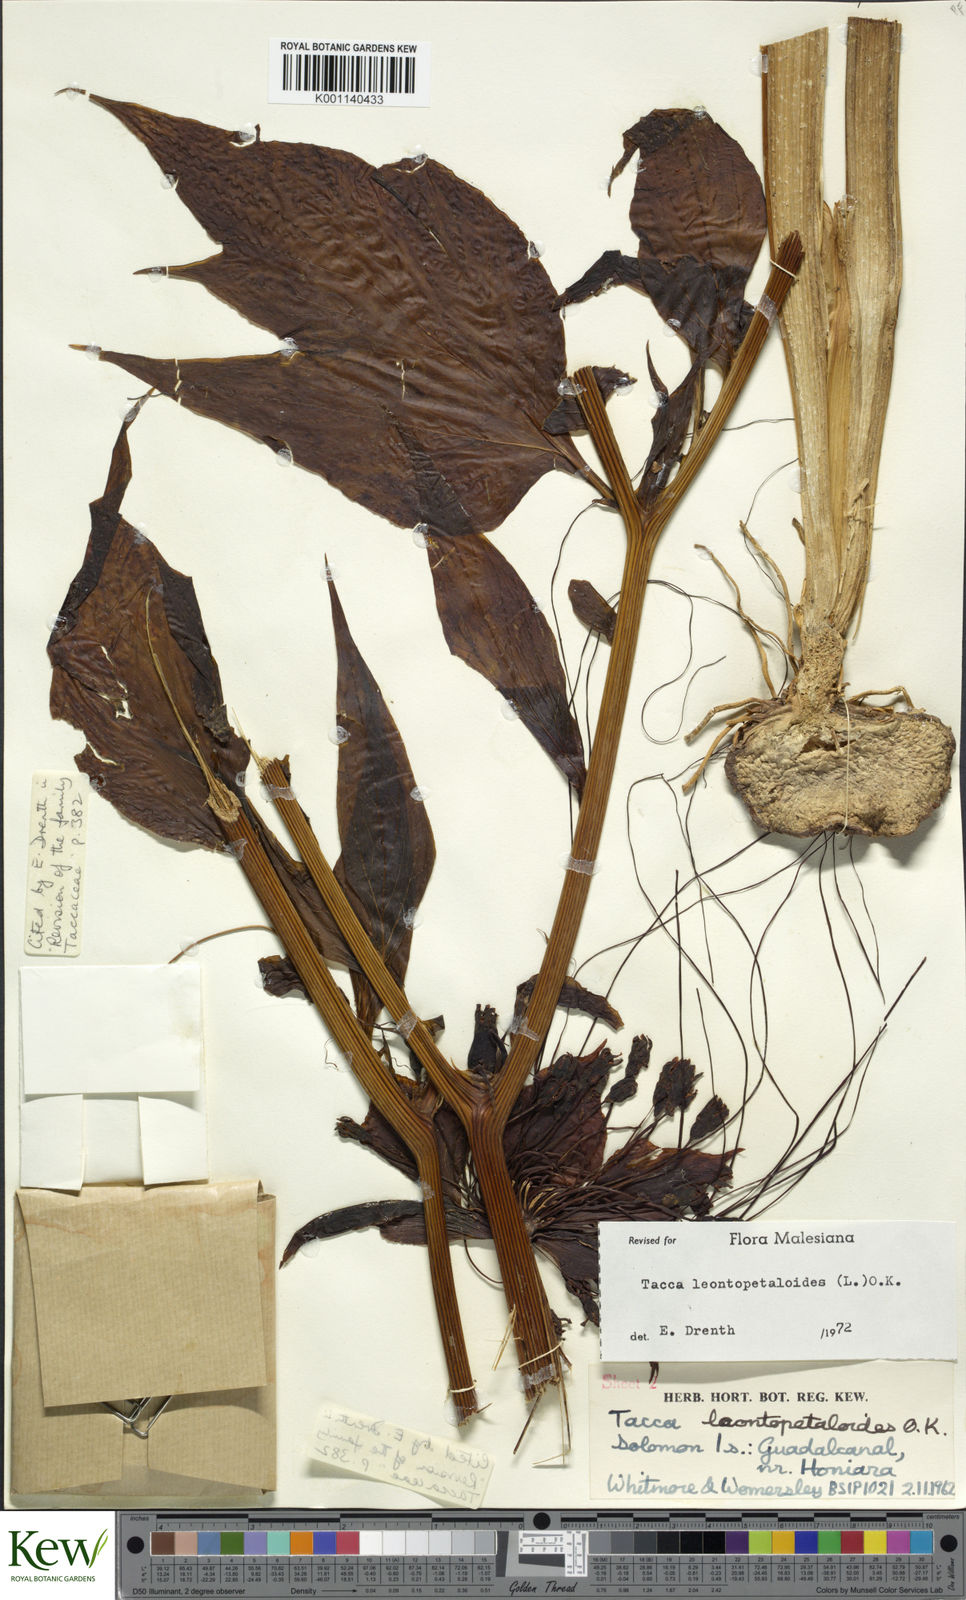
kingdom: Plantae
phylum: Tracheophyta
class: Liliopsida
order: Dioscoreales
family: Dioscoreaceae
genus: Tacca
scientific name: Tacca leontopetaloides
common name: Arrowroot
